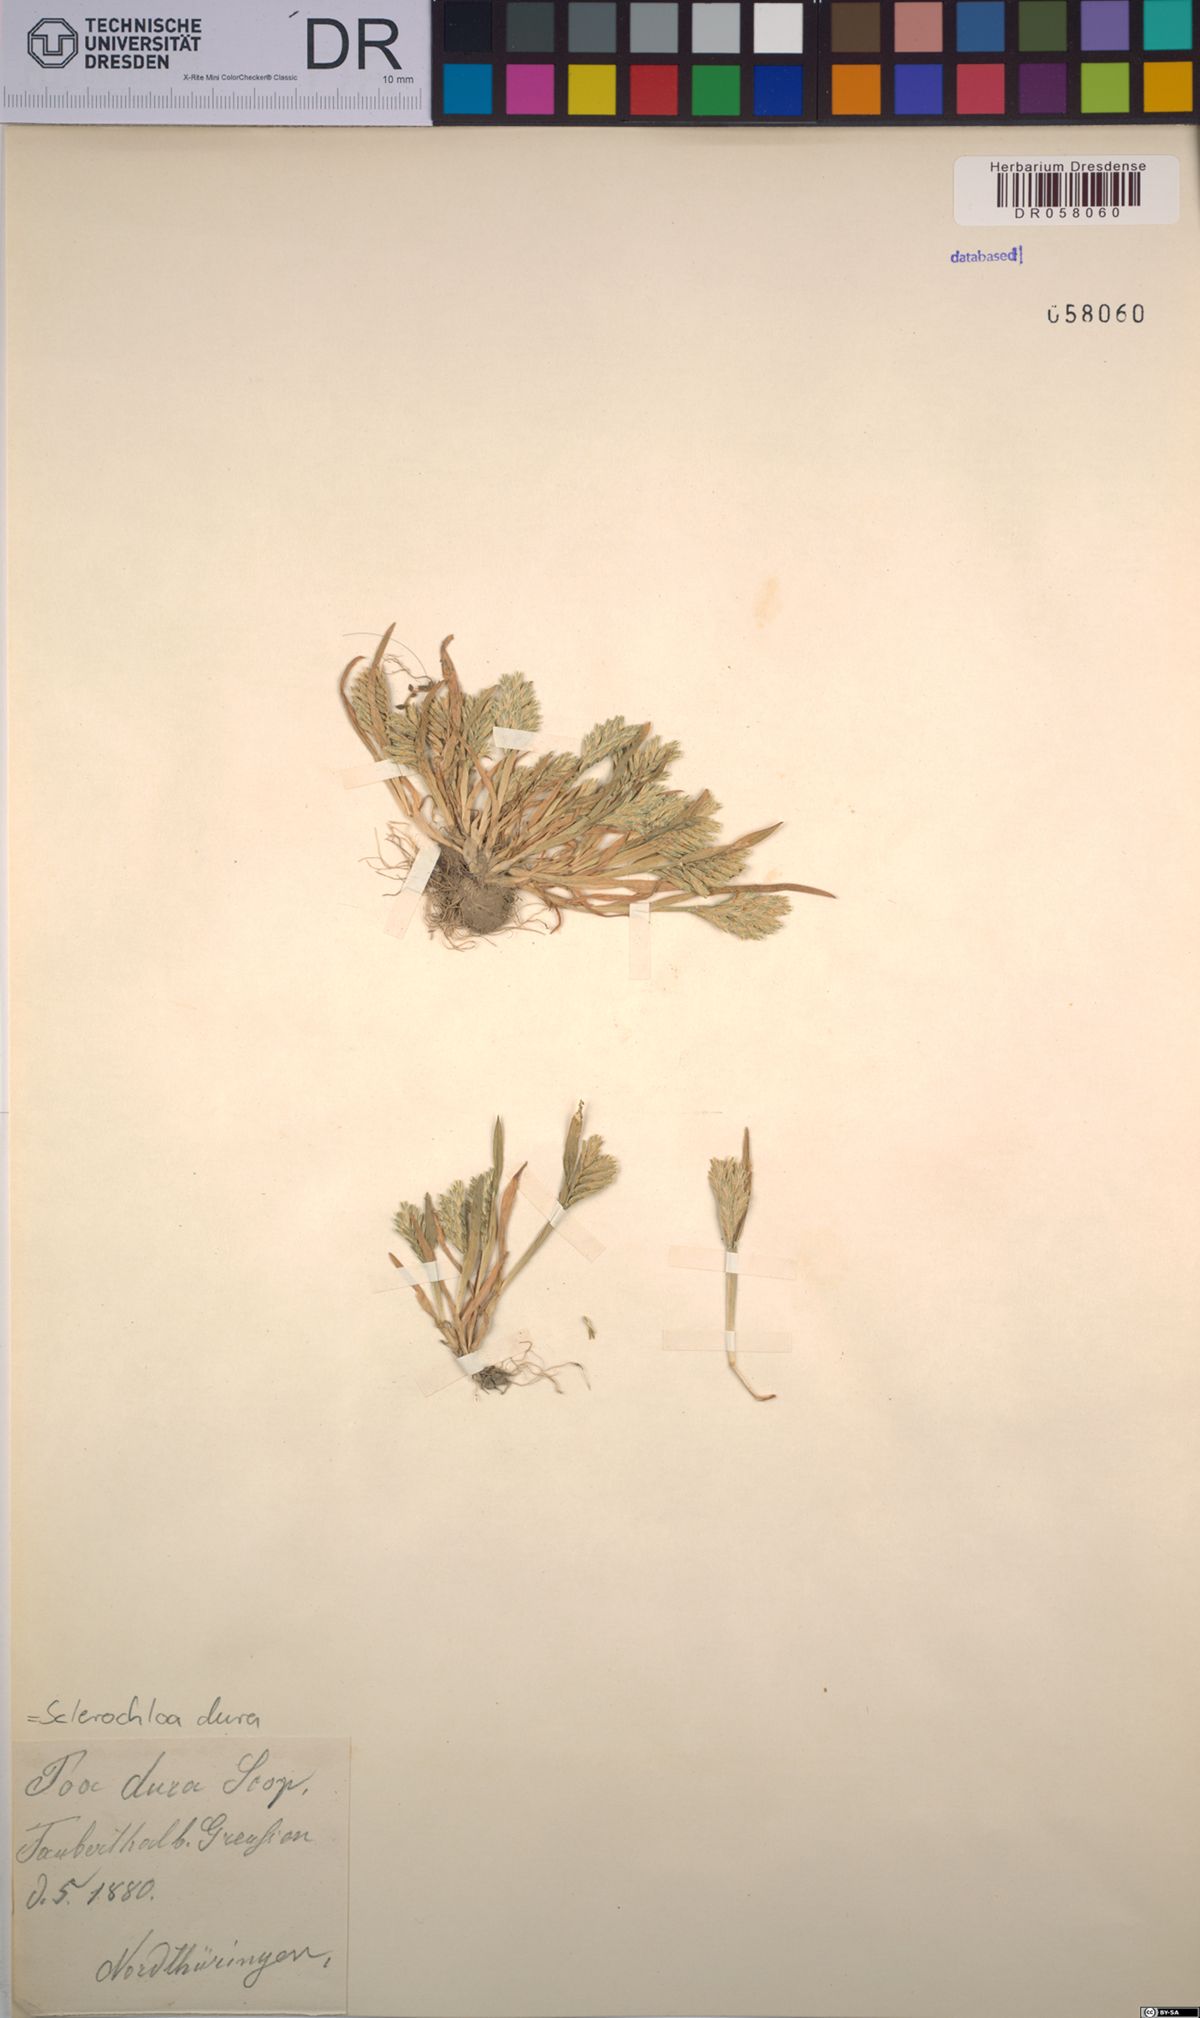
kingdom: Plantae
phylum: Tracheophyta
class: Liliopsida
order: Poales
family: Poaceae
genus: Sclerochloa
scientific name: Sclerochloa dura
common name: Common hardgrass
